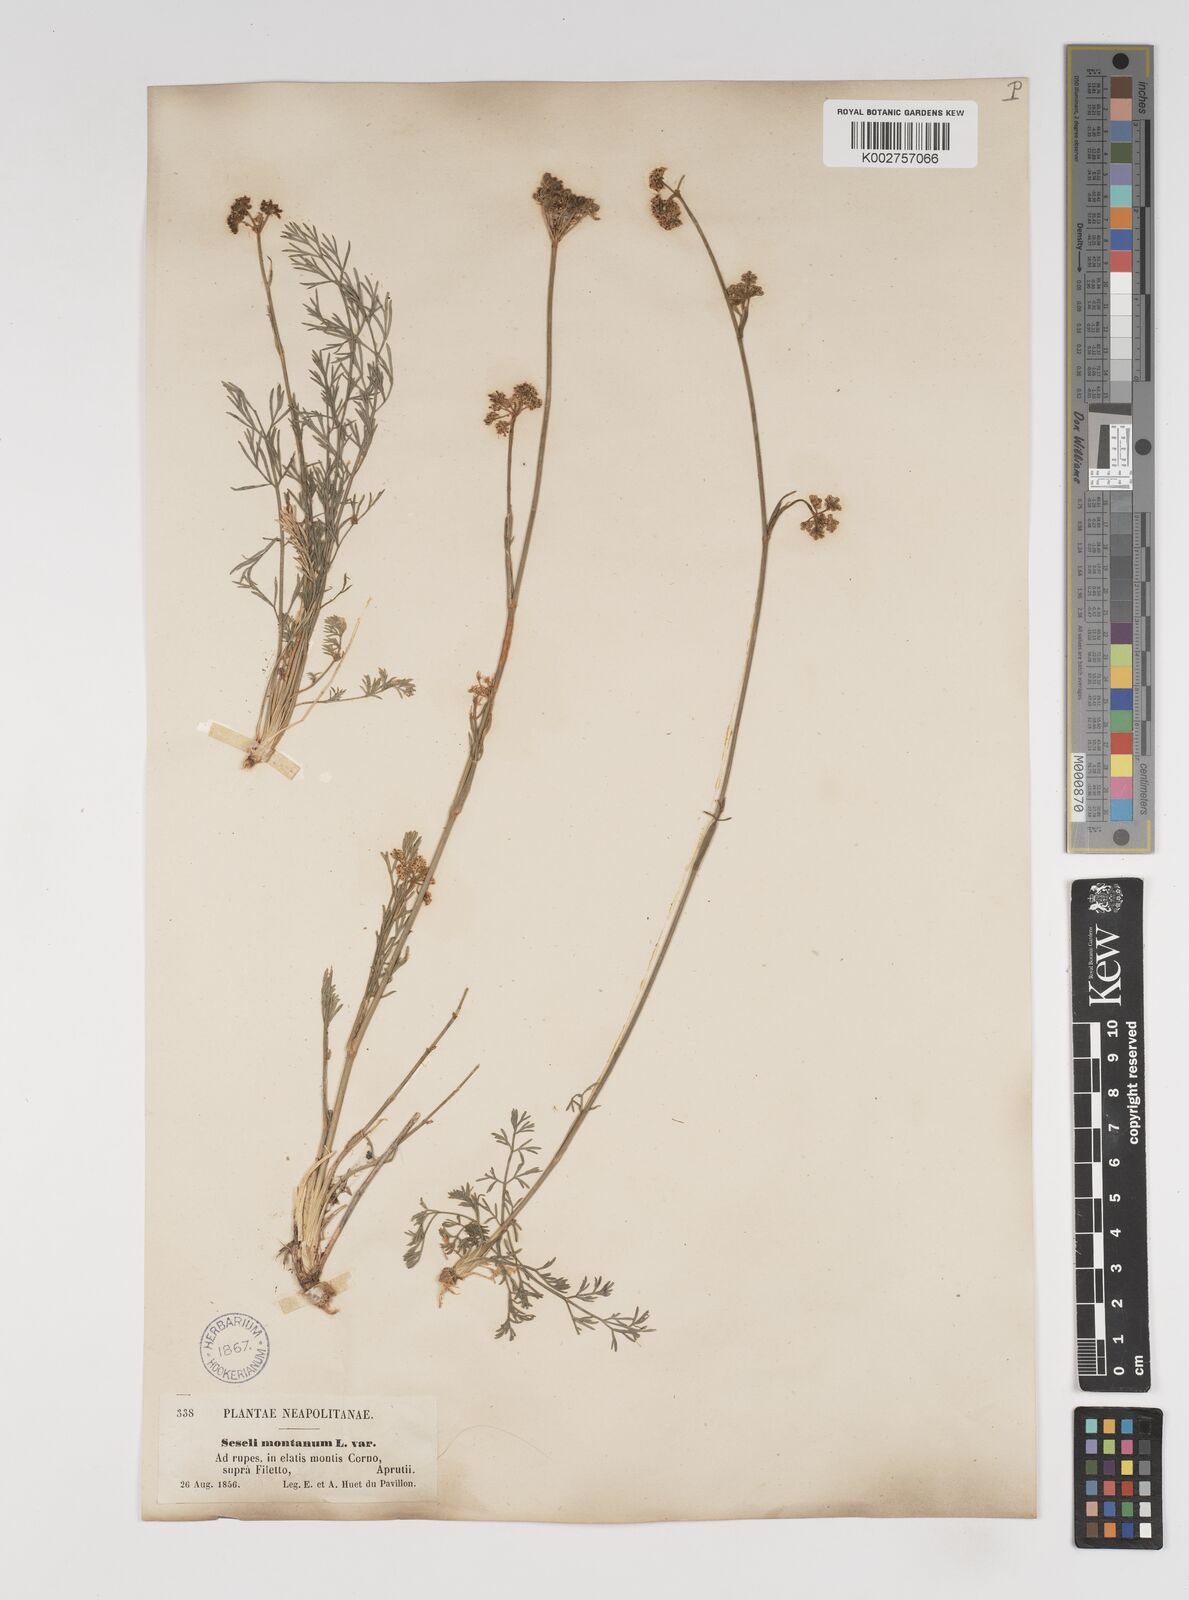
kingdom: Plantae
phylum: Tracheophyta
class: Magnoliopsida
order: Apiales
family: Apiaceae
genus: Seseli
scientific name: Seseli montanum
